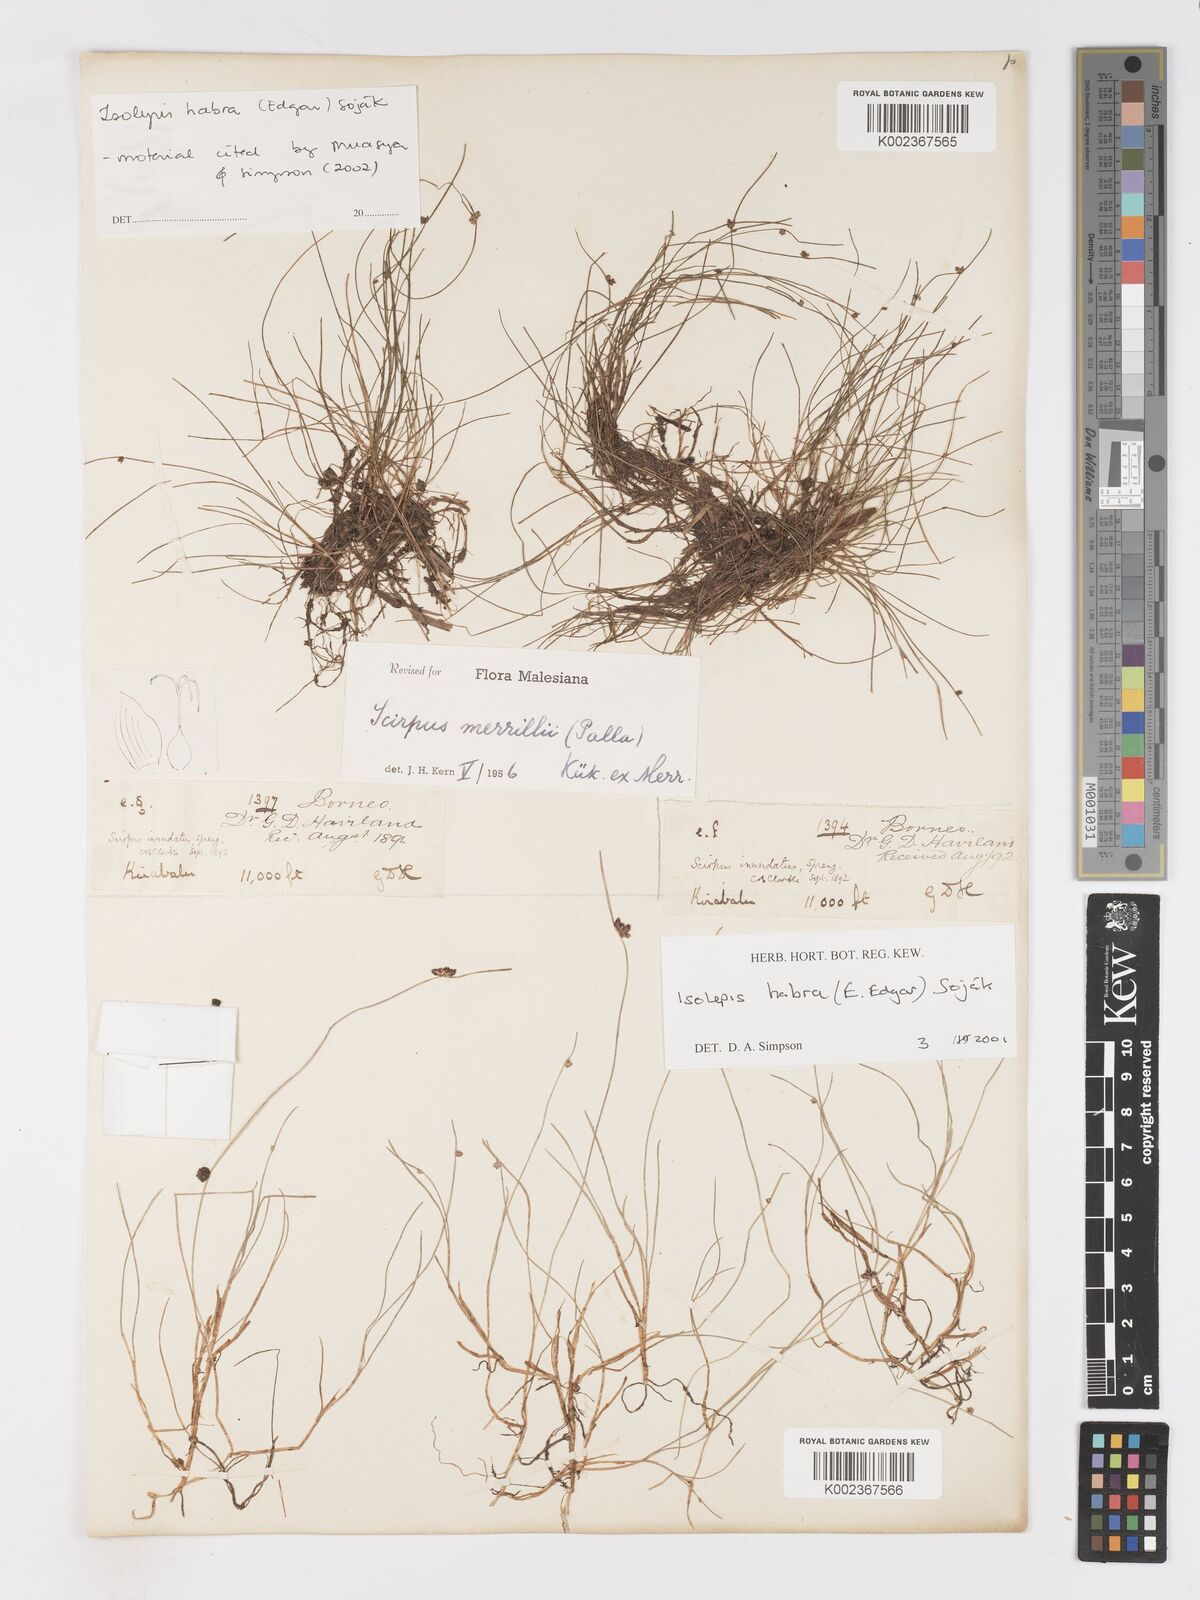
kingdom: Plantae
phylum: Tracheophyta
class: Liliopsida
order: Poales
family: Cyperaceae
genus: Isolepis
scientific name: Isolepis habra
